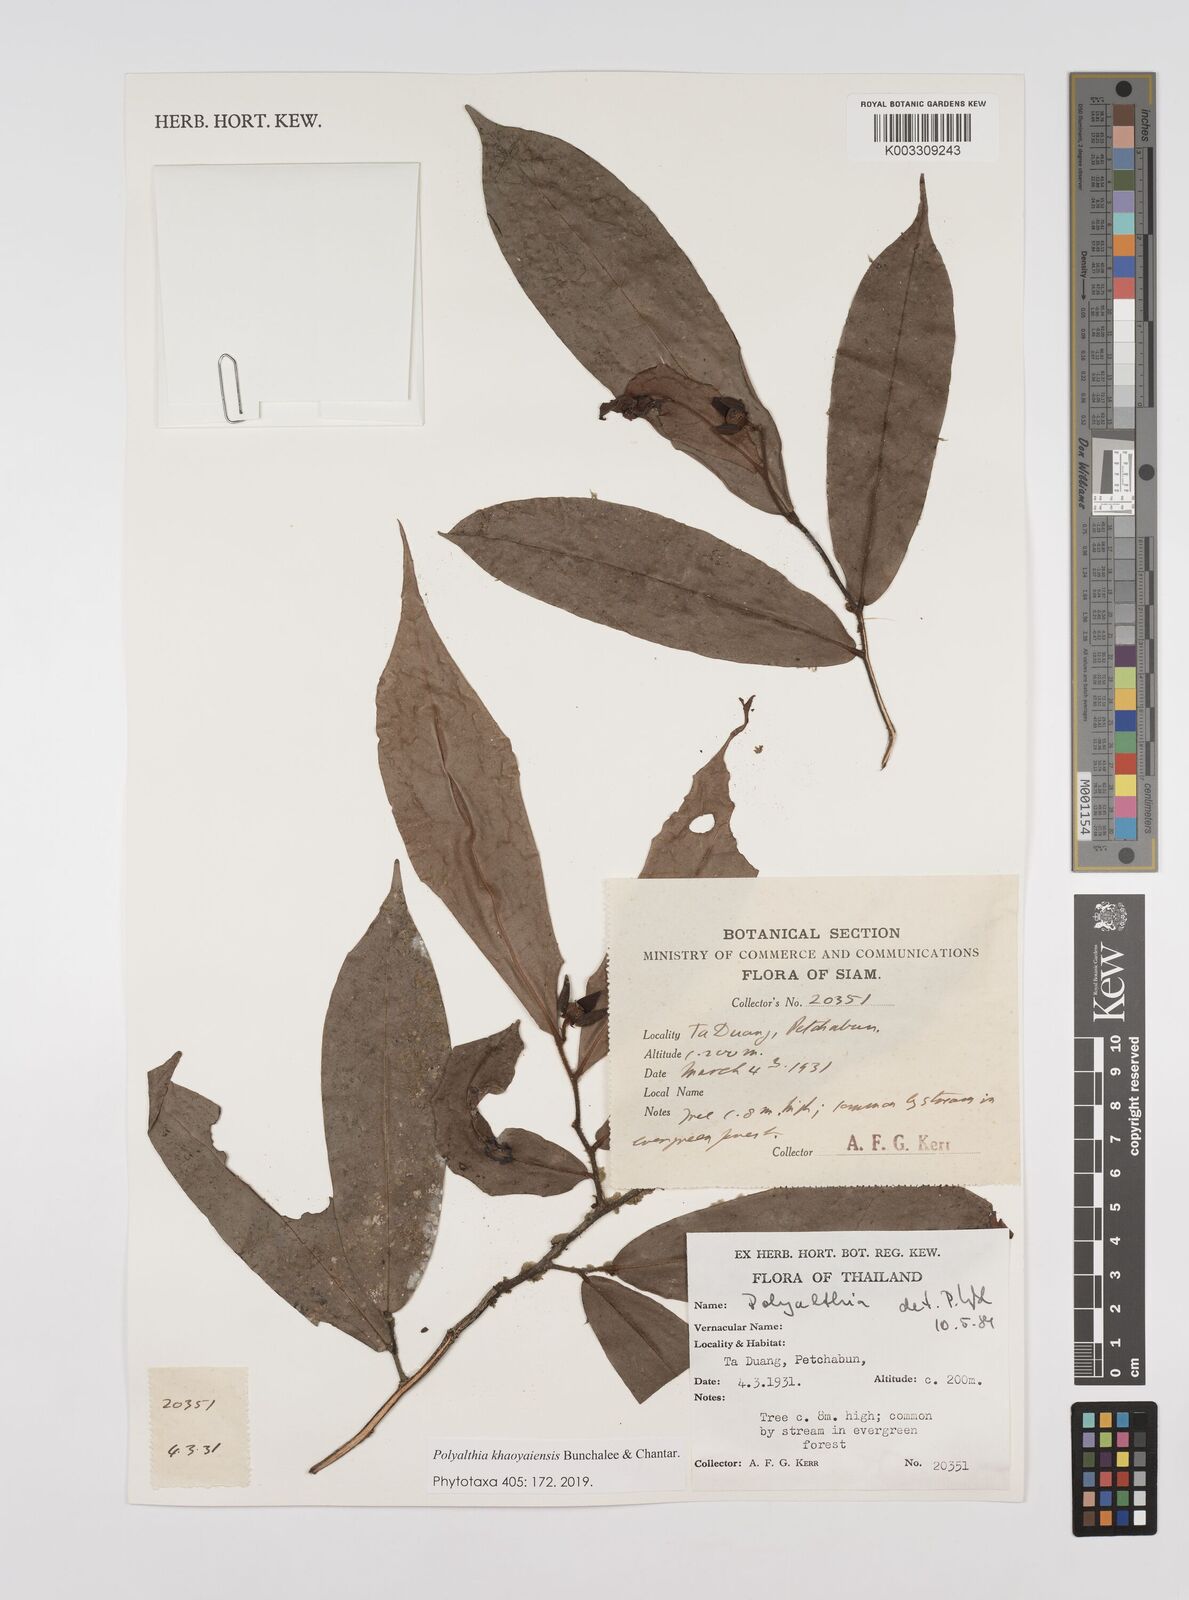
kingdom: Plantae
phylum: Tracheophyta
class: Magnoliopsida
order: Magnoliales
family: Annonaceae
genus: Polyalthia
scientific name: Polyalthia khaoyaiensis
